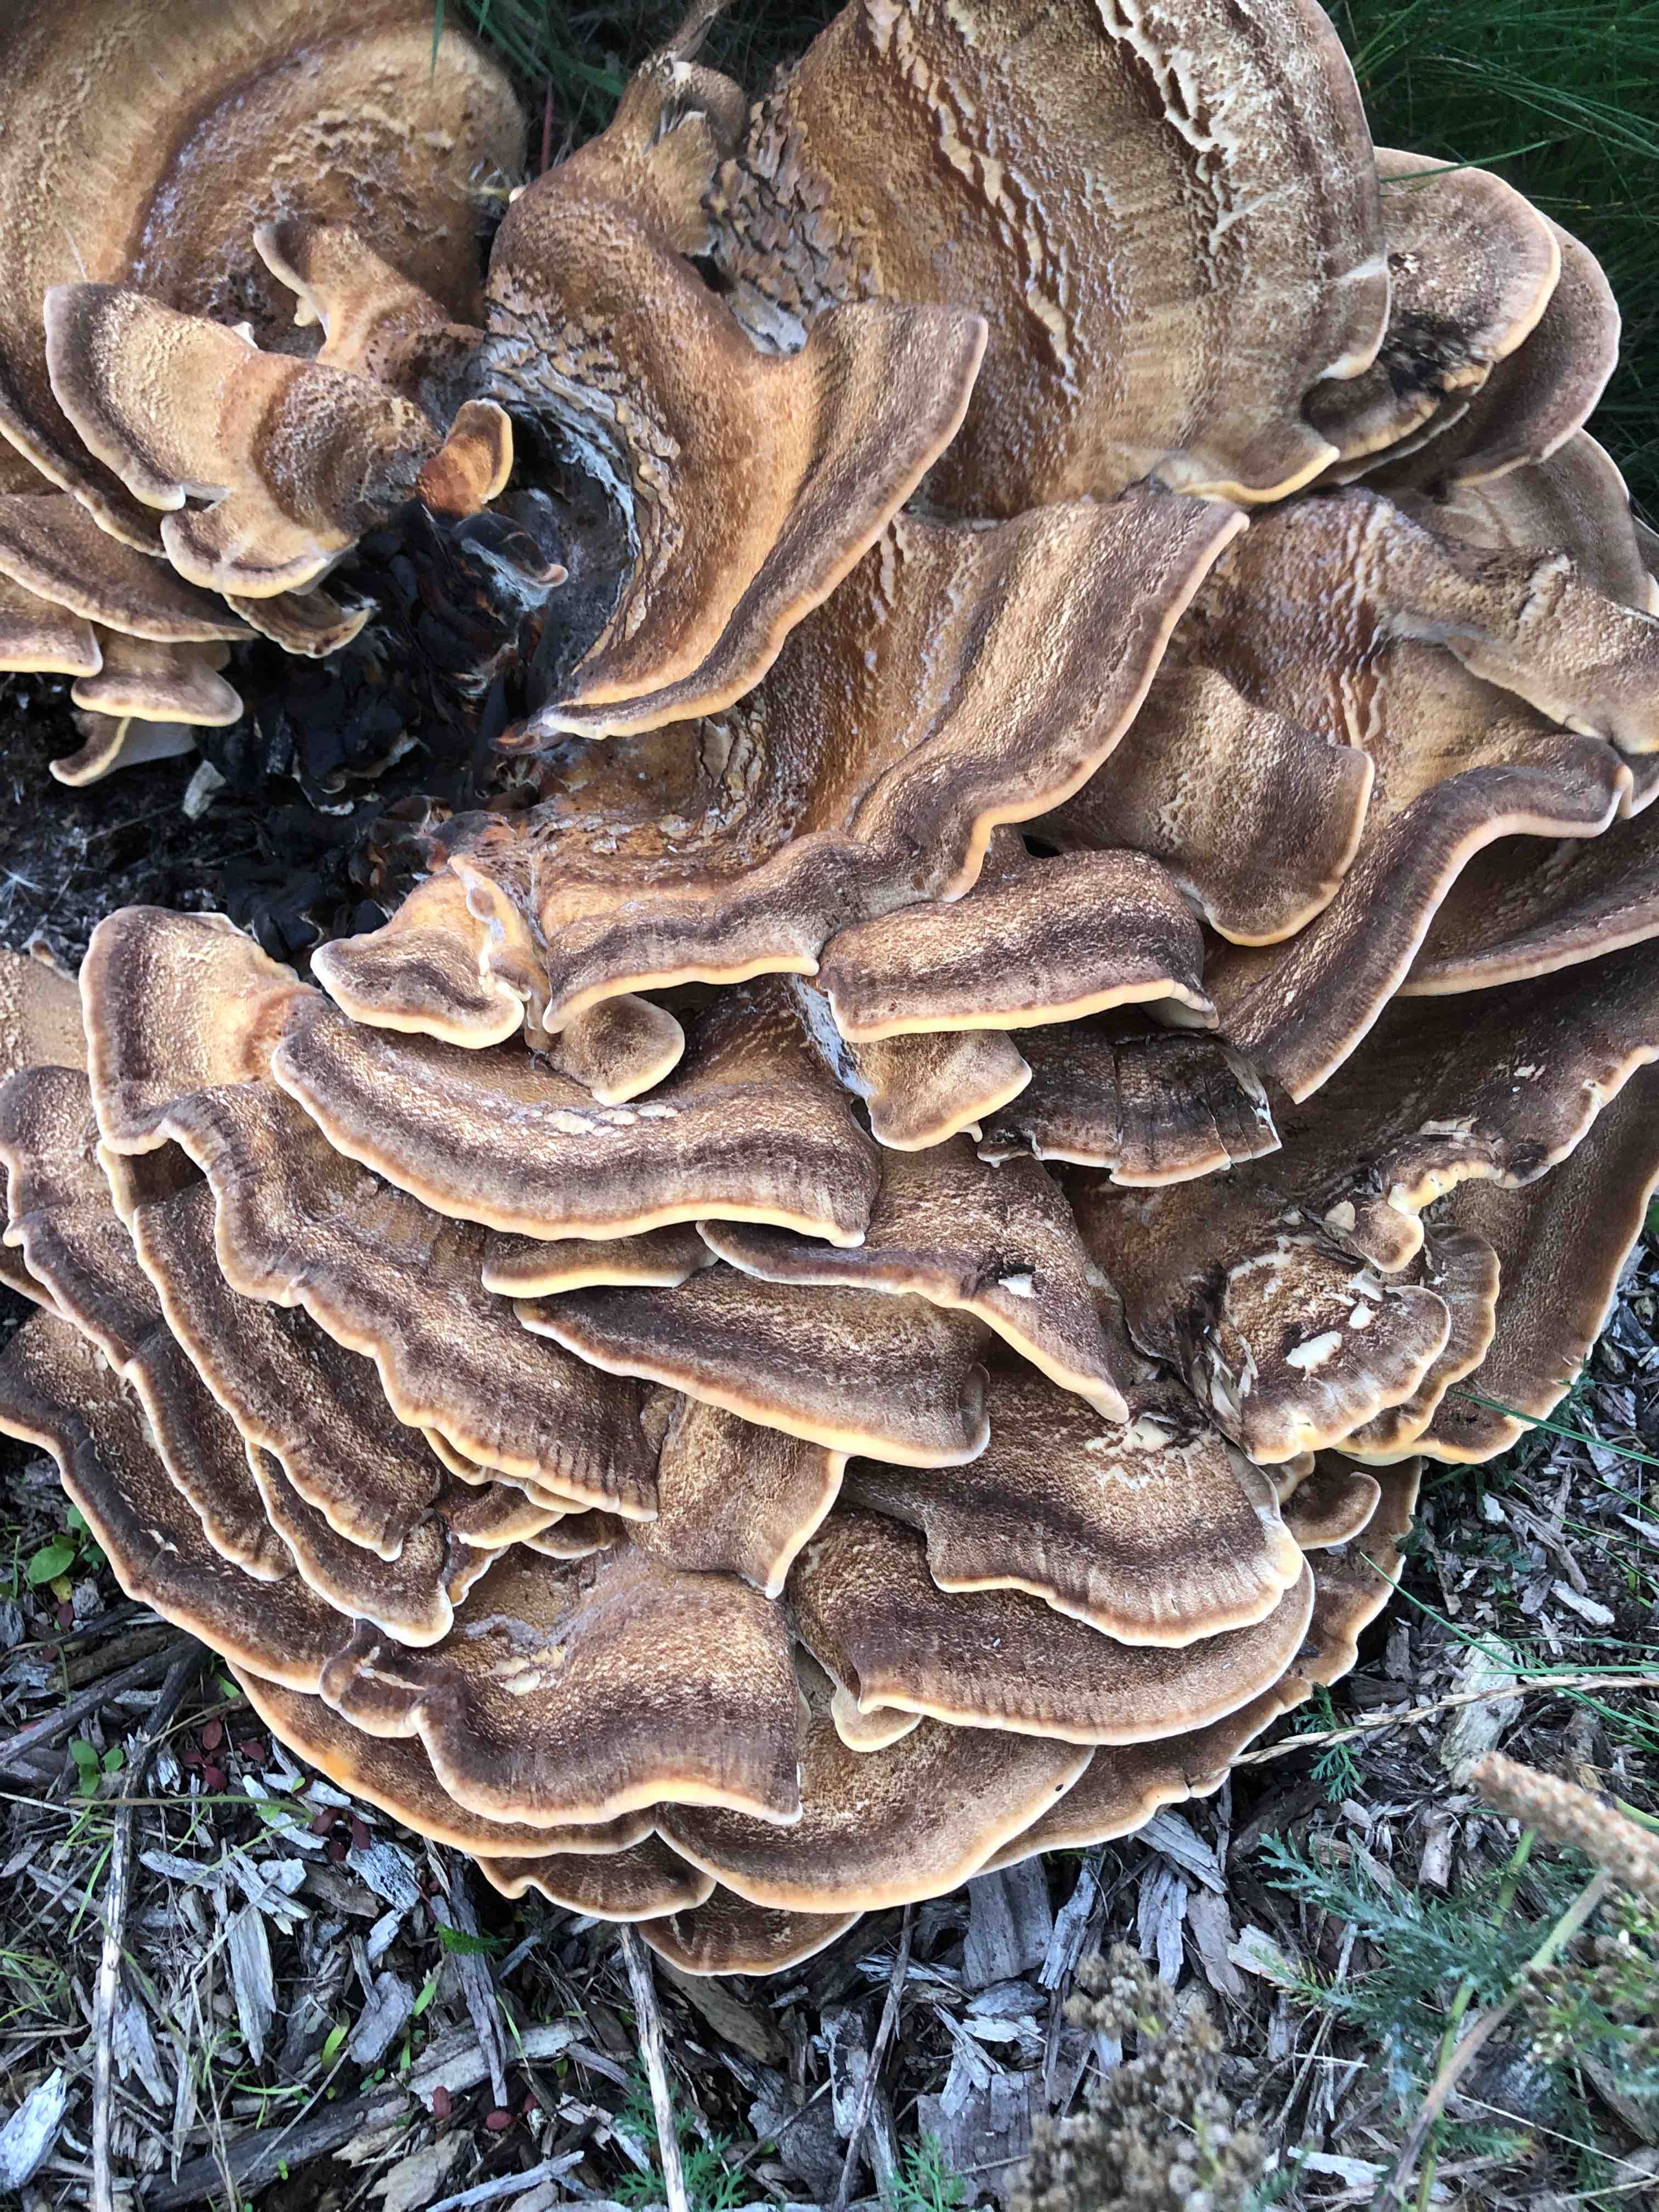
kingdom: Fungi
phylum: Basidiomycota
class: Agaricomycetes
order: Polyporales
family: Meripilaceae
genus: Meripilus
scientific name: Meripilus giganteus
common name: kæmpeporesvamp
